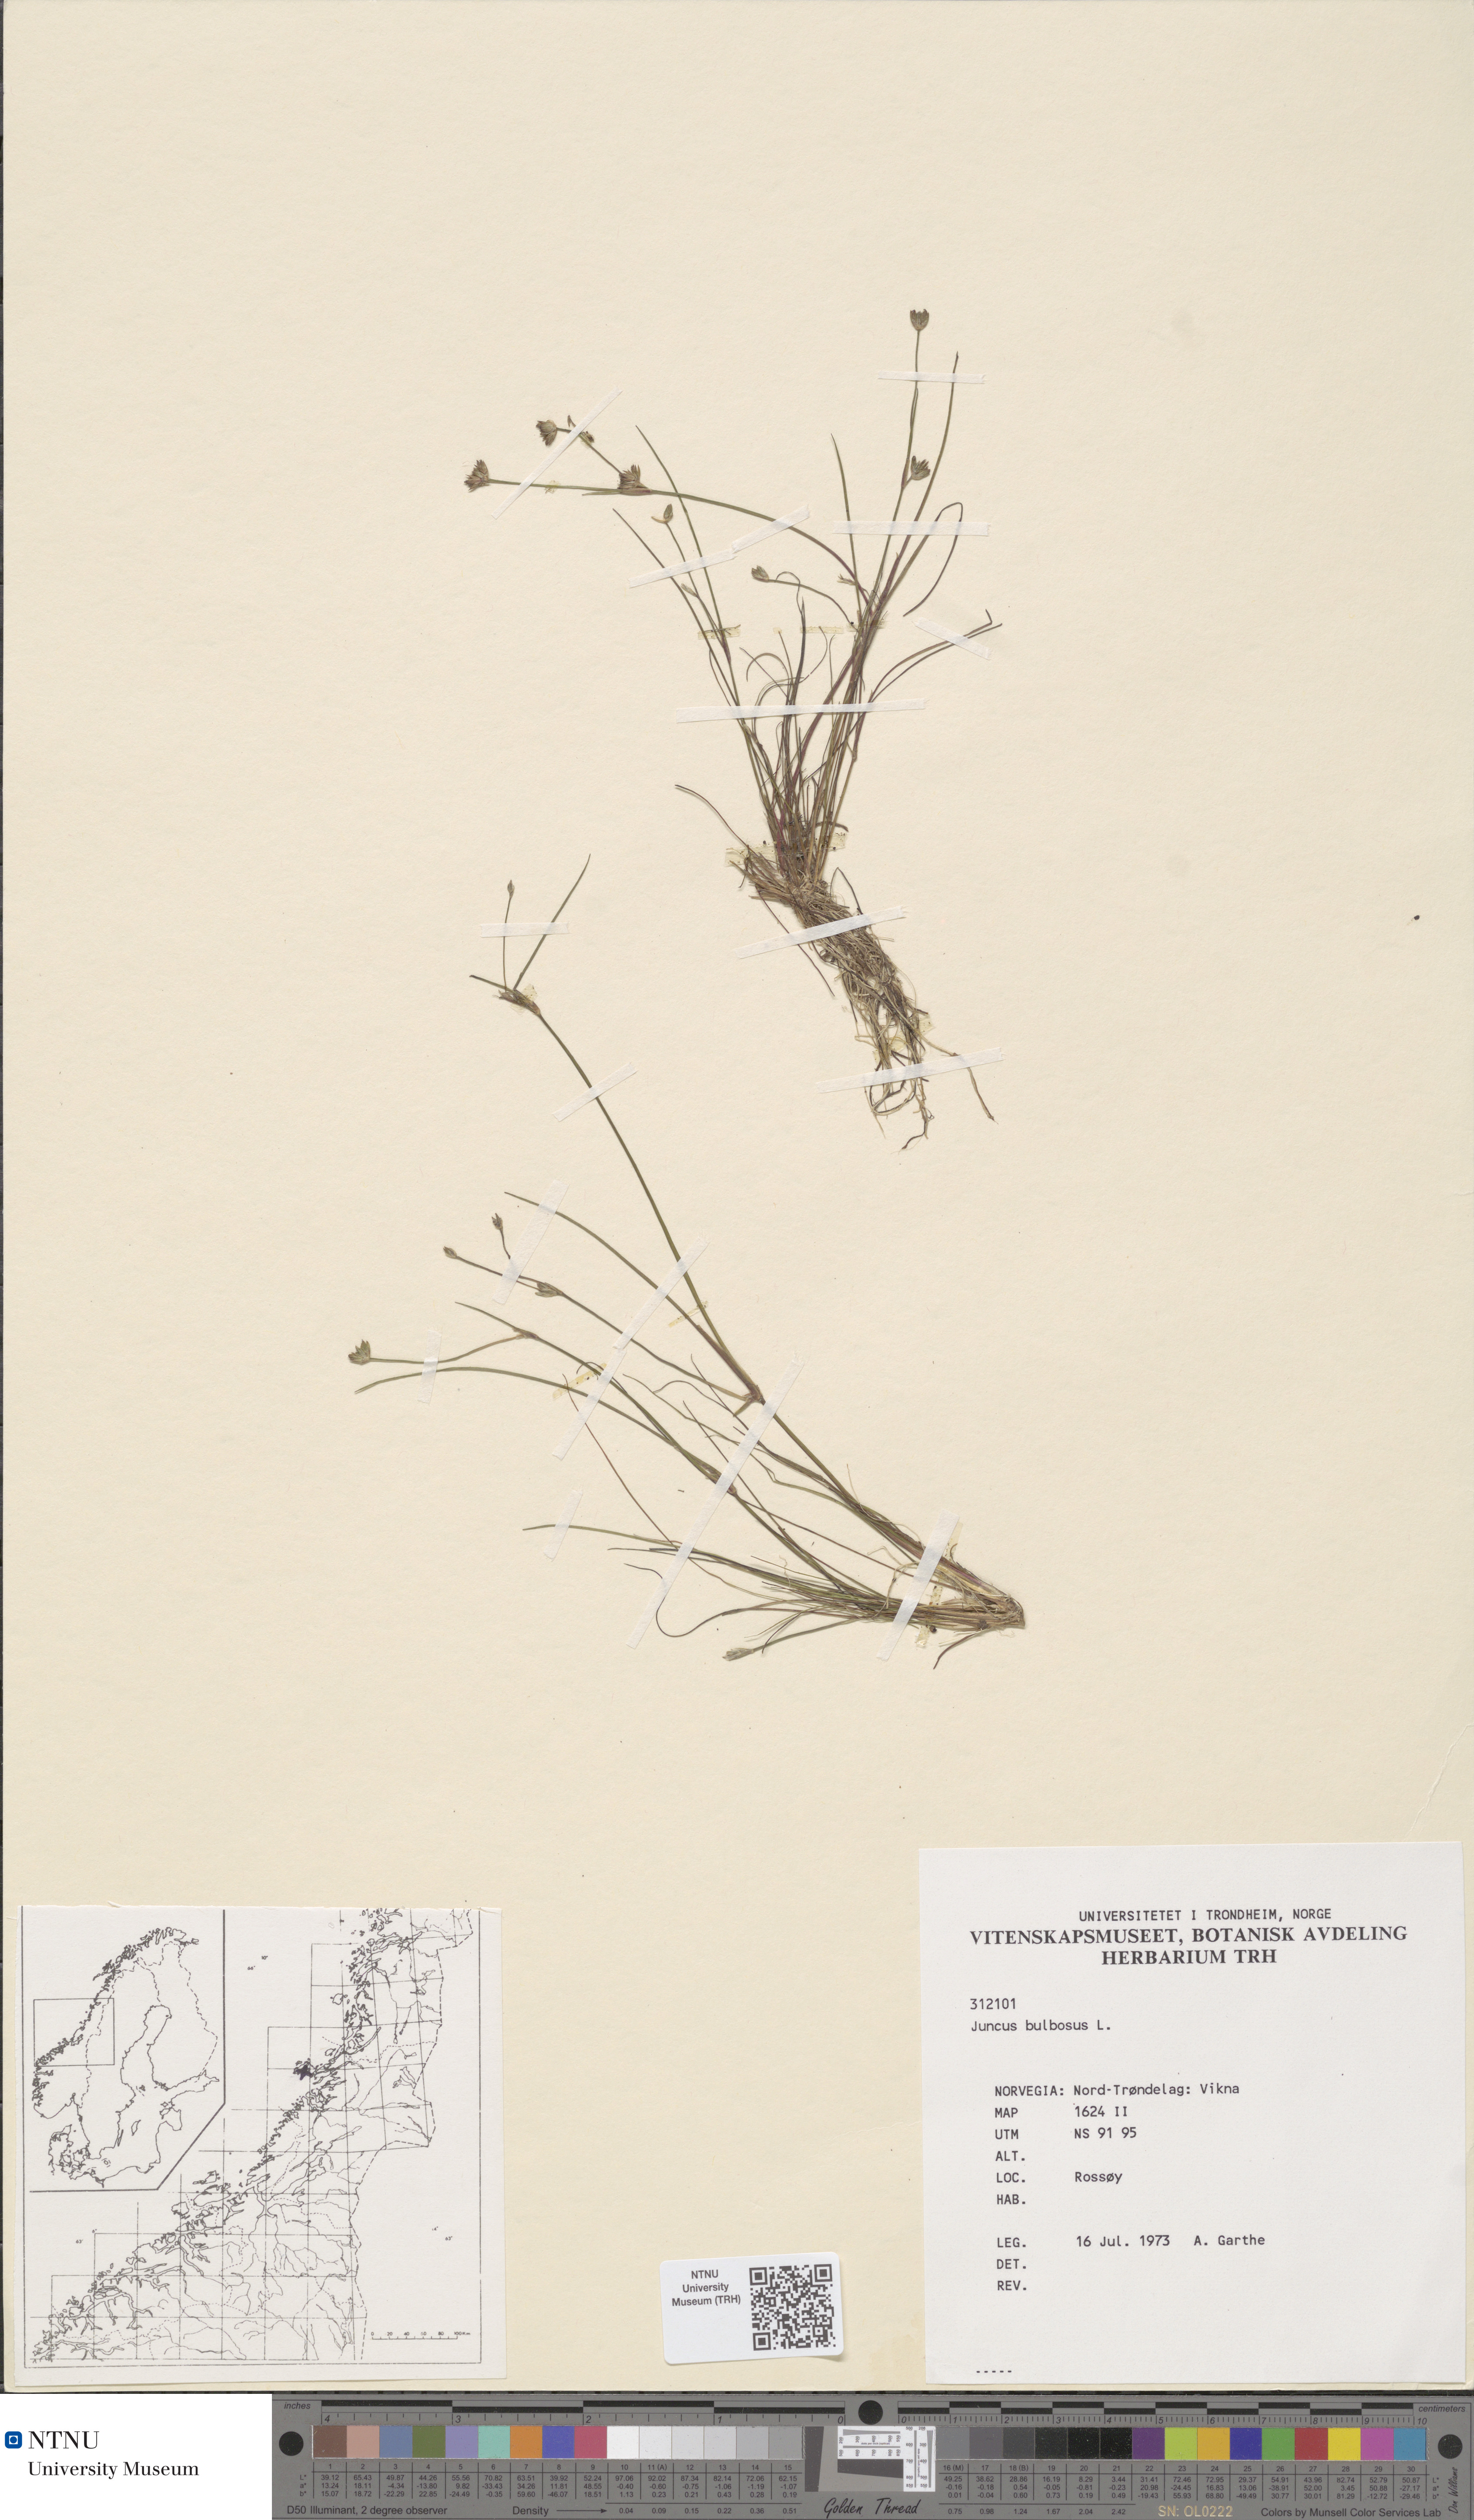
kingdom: Plantae
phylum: Tracheophyta
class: Liliopsida
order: Poales
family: Juncaceae
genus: Juncus
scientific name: Juncus bulbosus
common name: Bulbous rush
